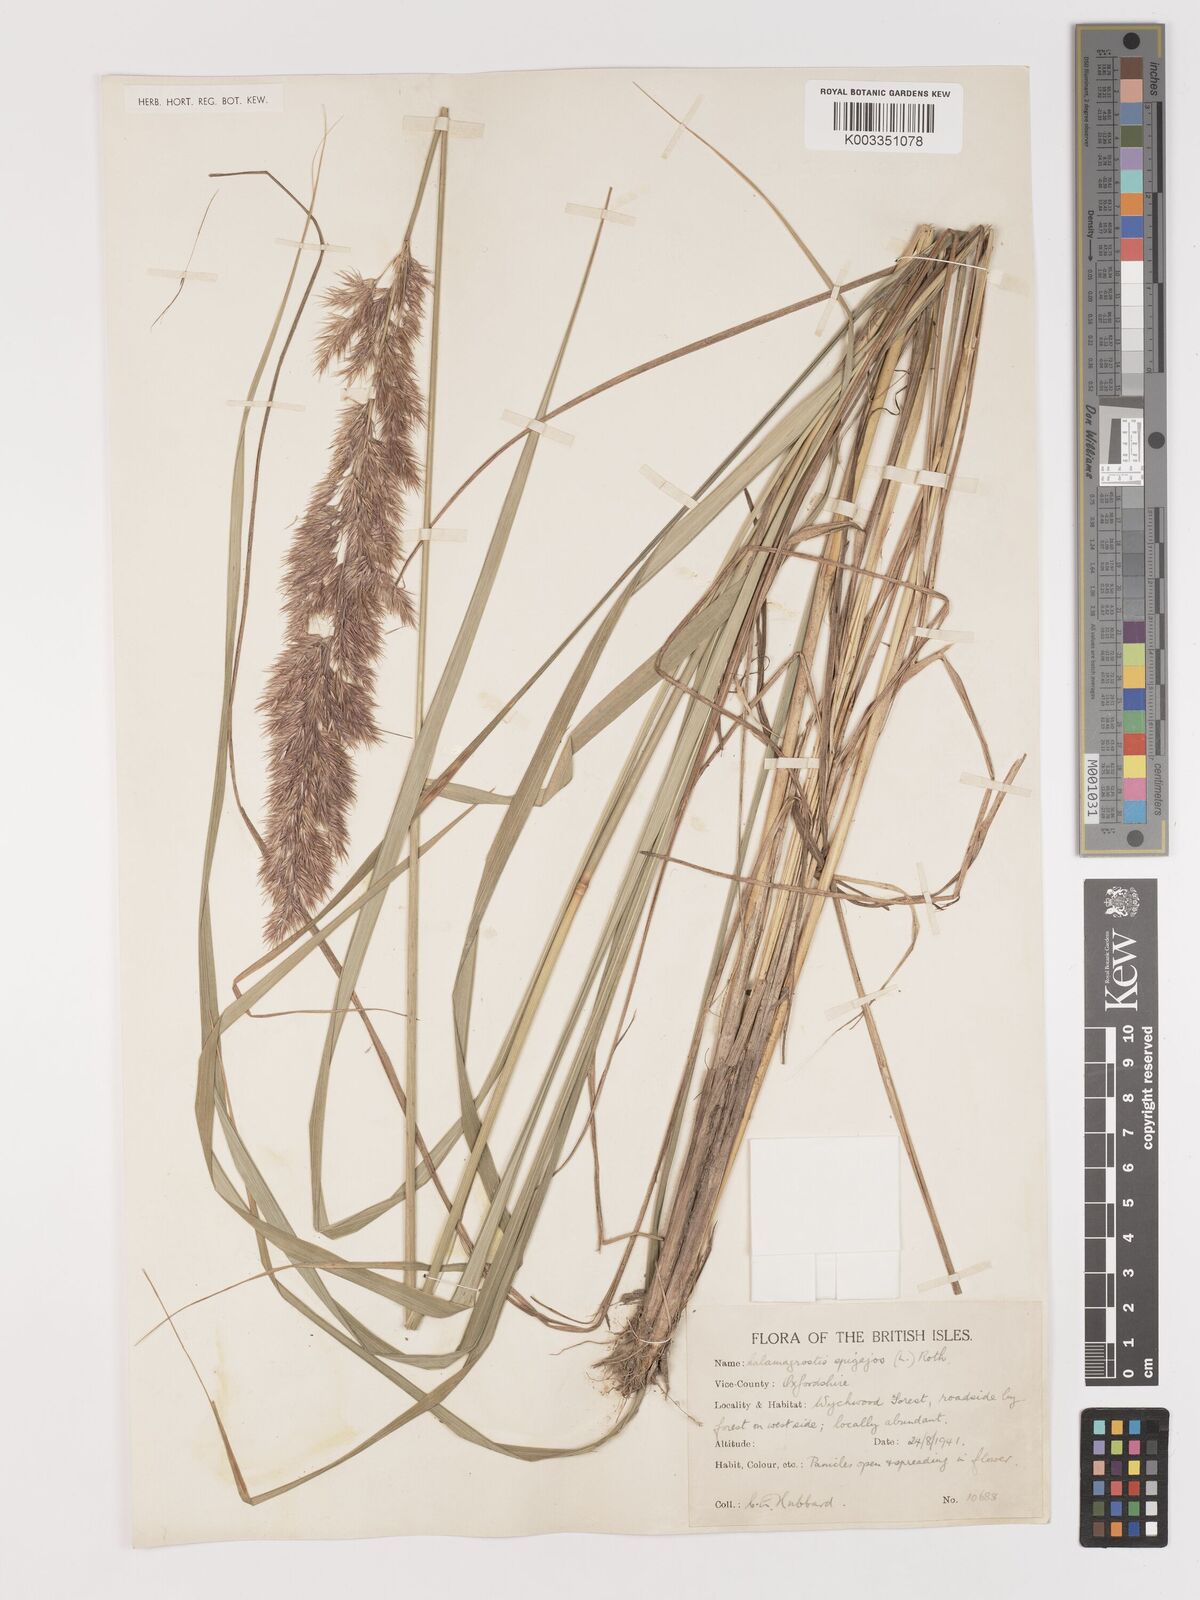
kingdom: Plantae
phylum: Tracheophyta
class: Liliopsida
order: Poales
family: Poaceae
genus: Calamagrostis
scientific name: Calamagrostis epigejos
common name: Wood small-reed
